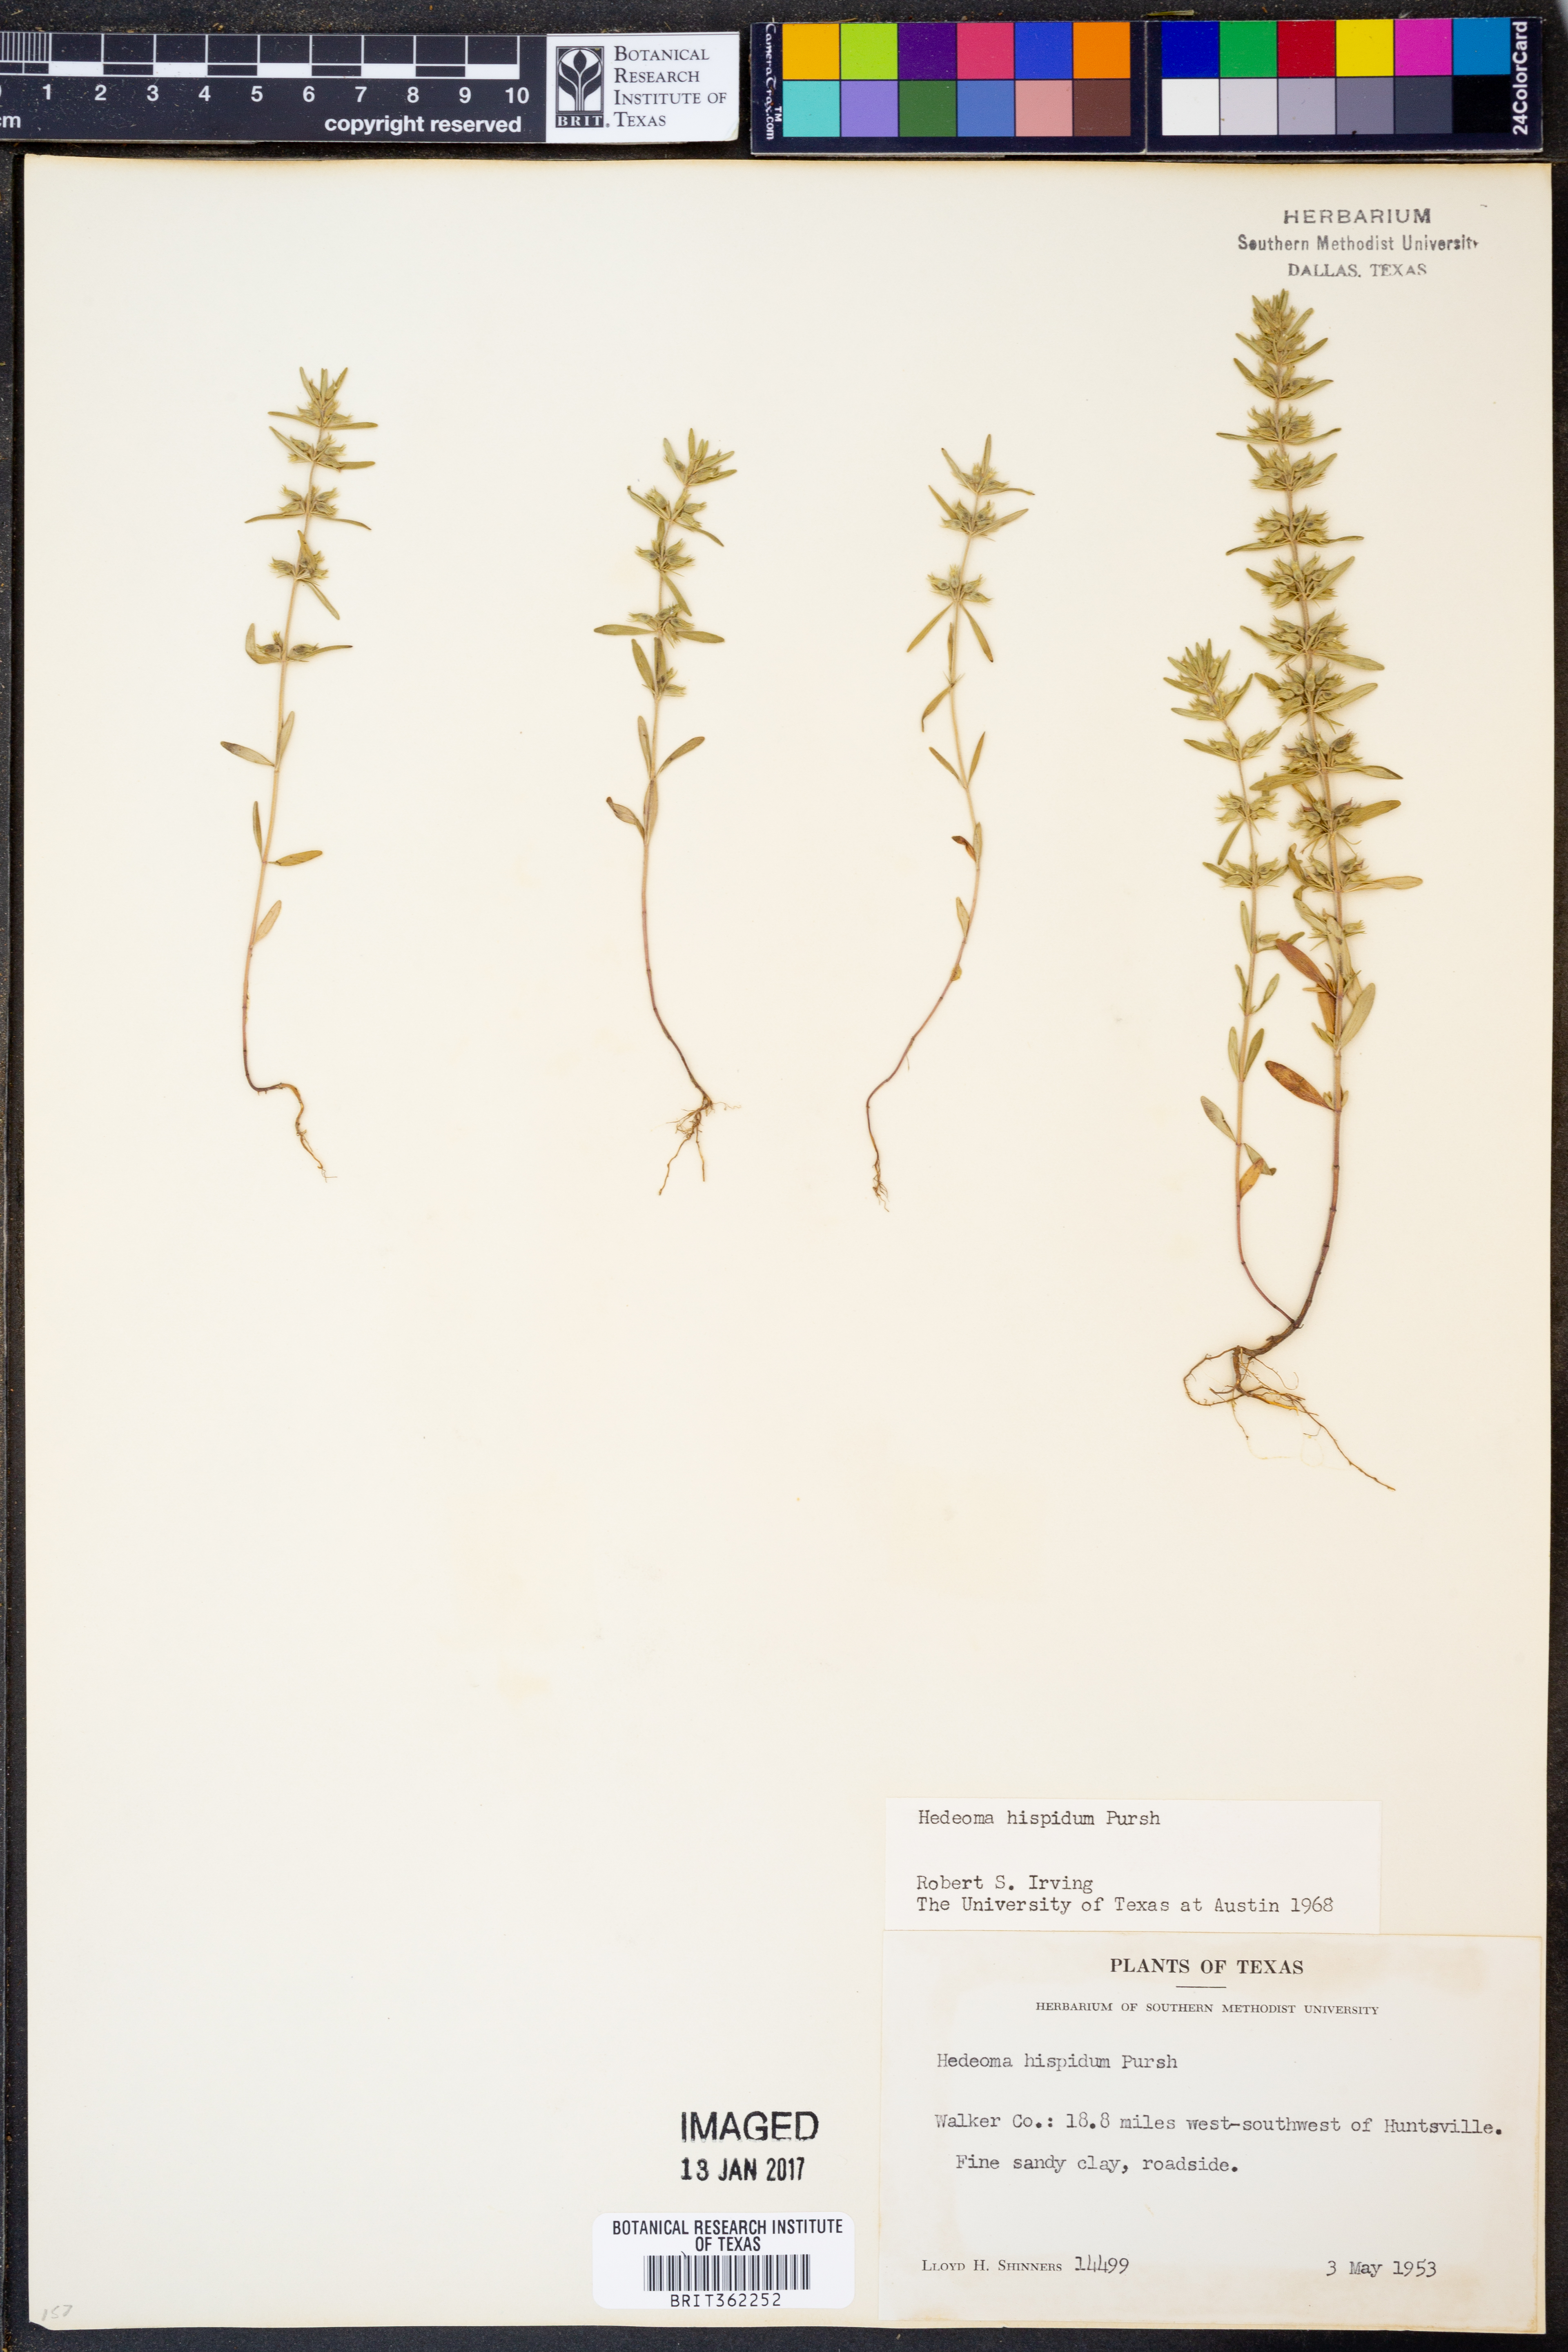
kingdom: Plantae
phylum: Tracheophyta
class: Magnoliopsida
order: Lamiales
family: Lamiaceae
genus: Hedeoma
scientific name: Hedeoma hispida
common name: Mock pennyroyal
